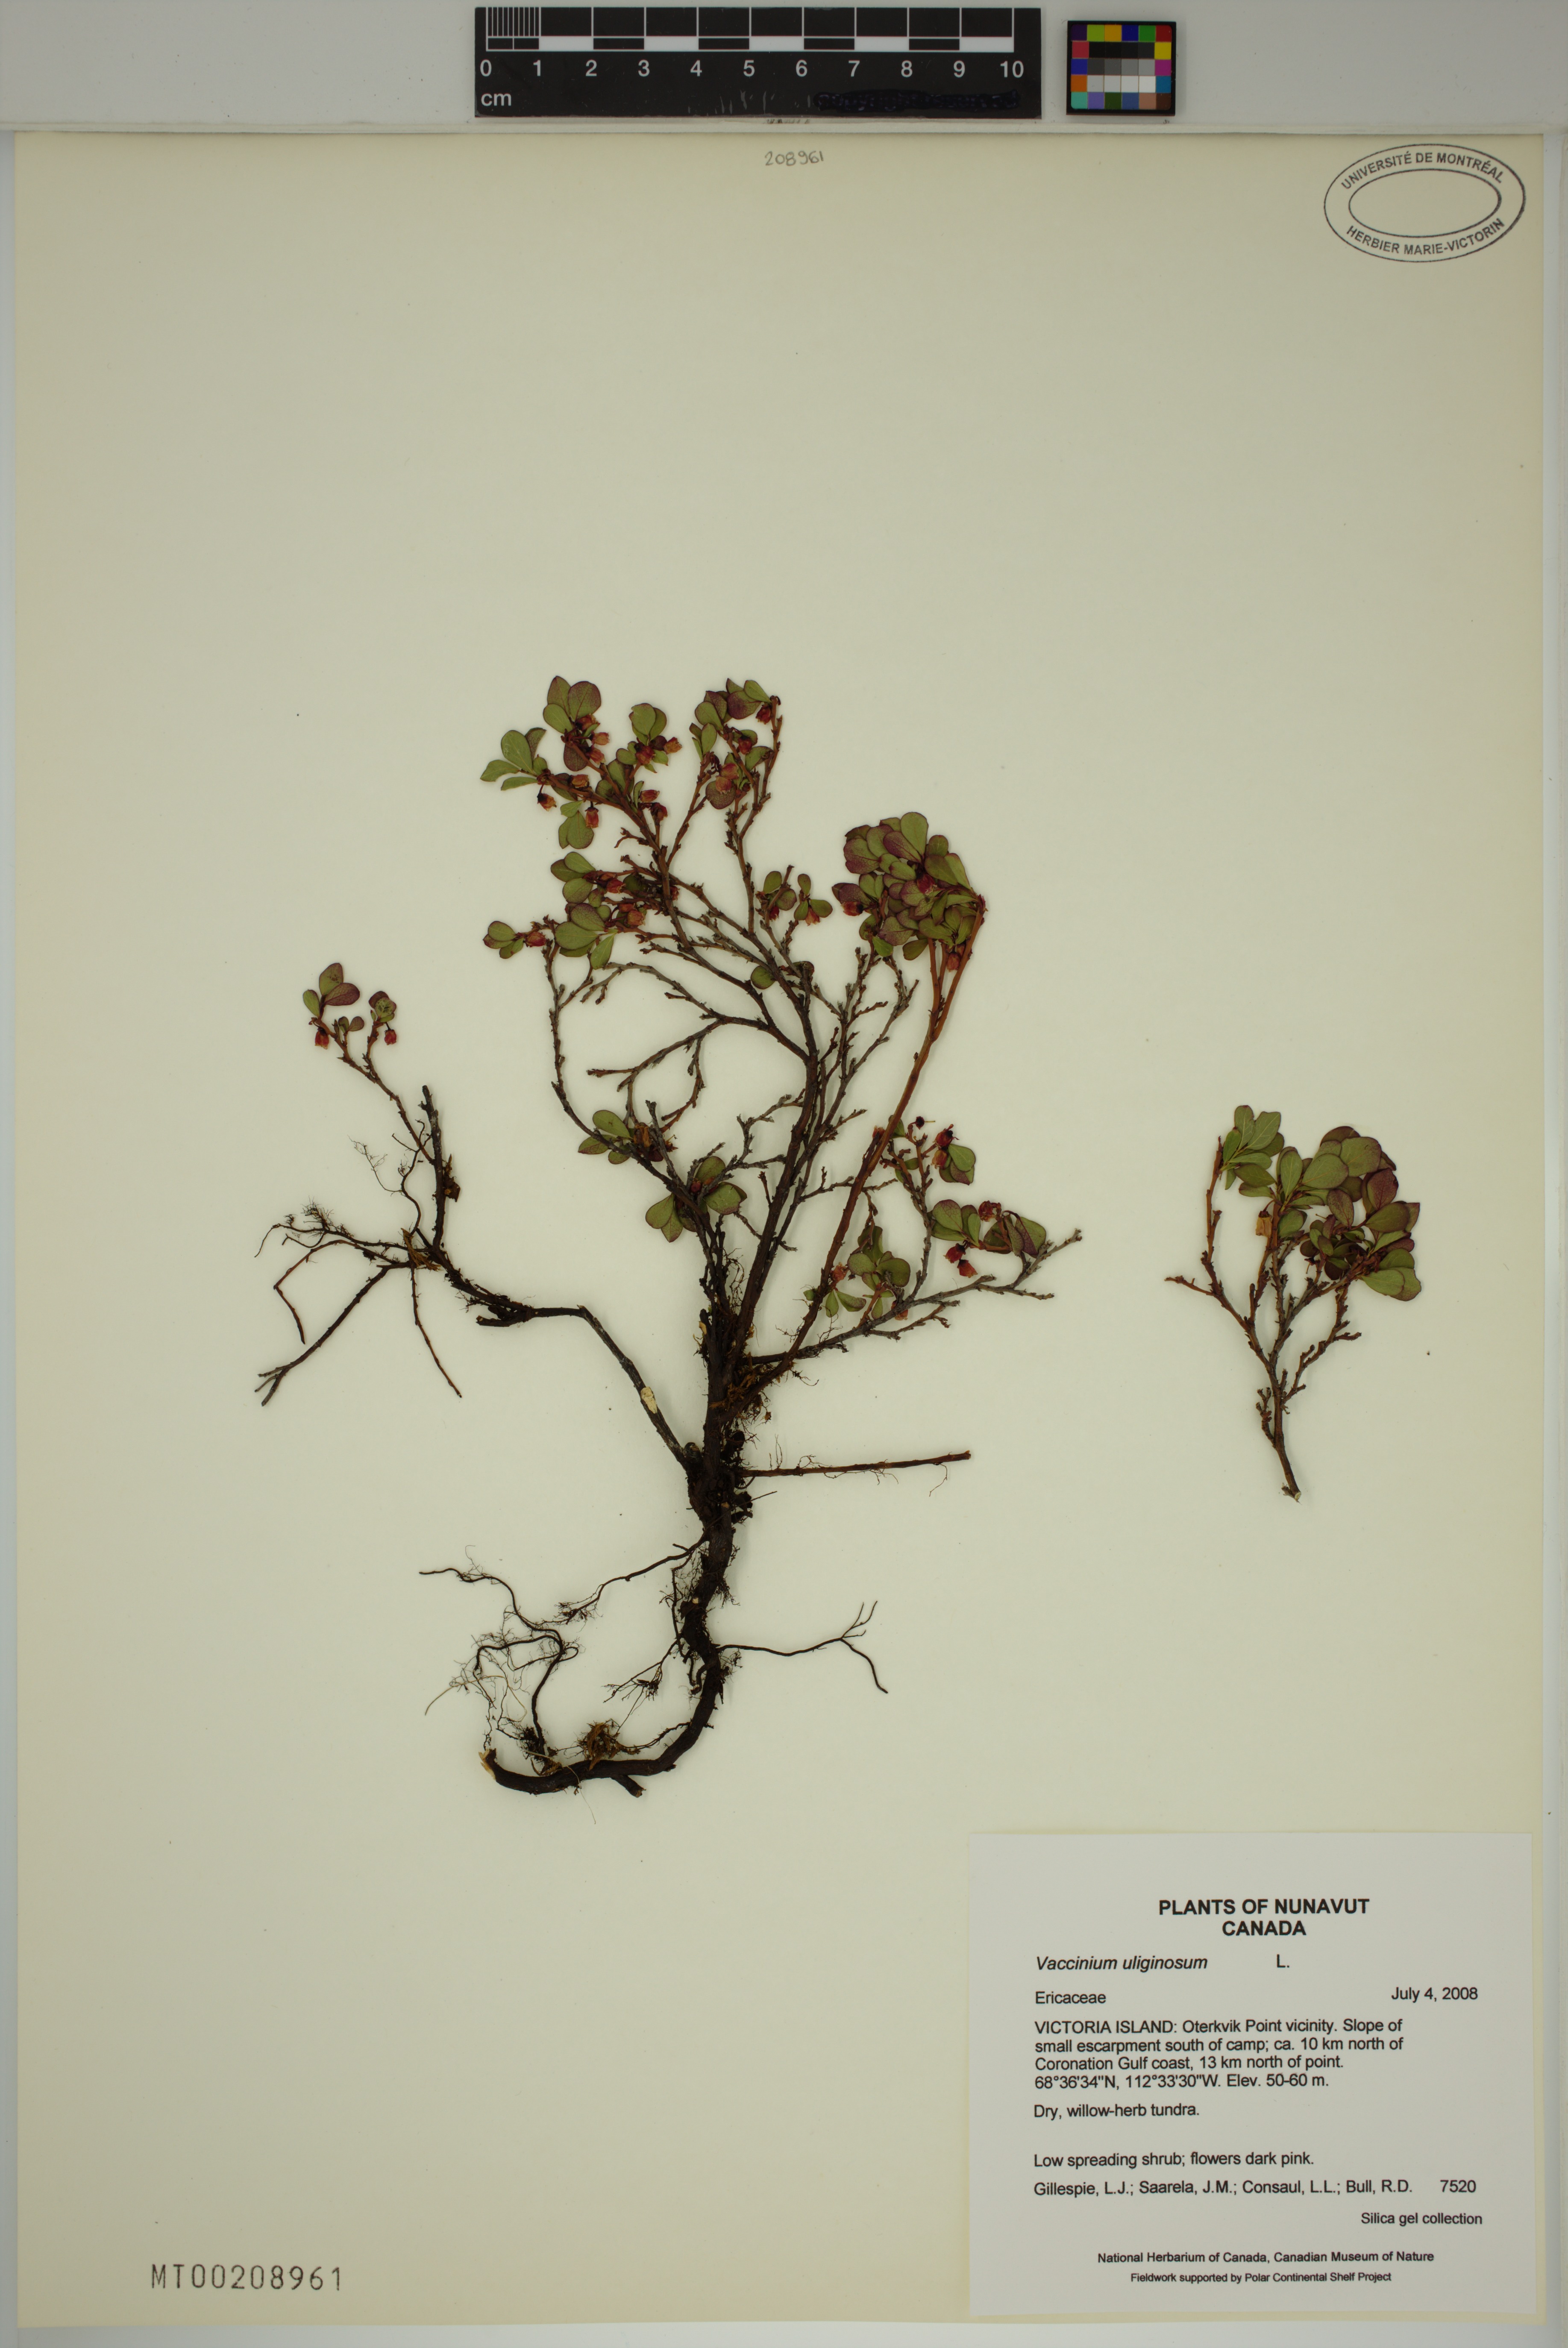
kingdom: Plantae
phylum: Tracheophyta
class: Magnoliopsida
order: Ericales
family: Ericaceae
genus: Vaccinium
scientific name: Vaccinium uliginosum
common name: Bog bilberry
